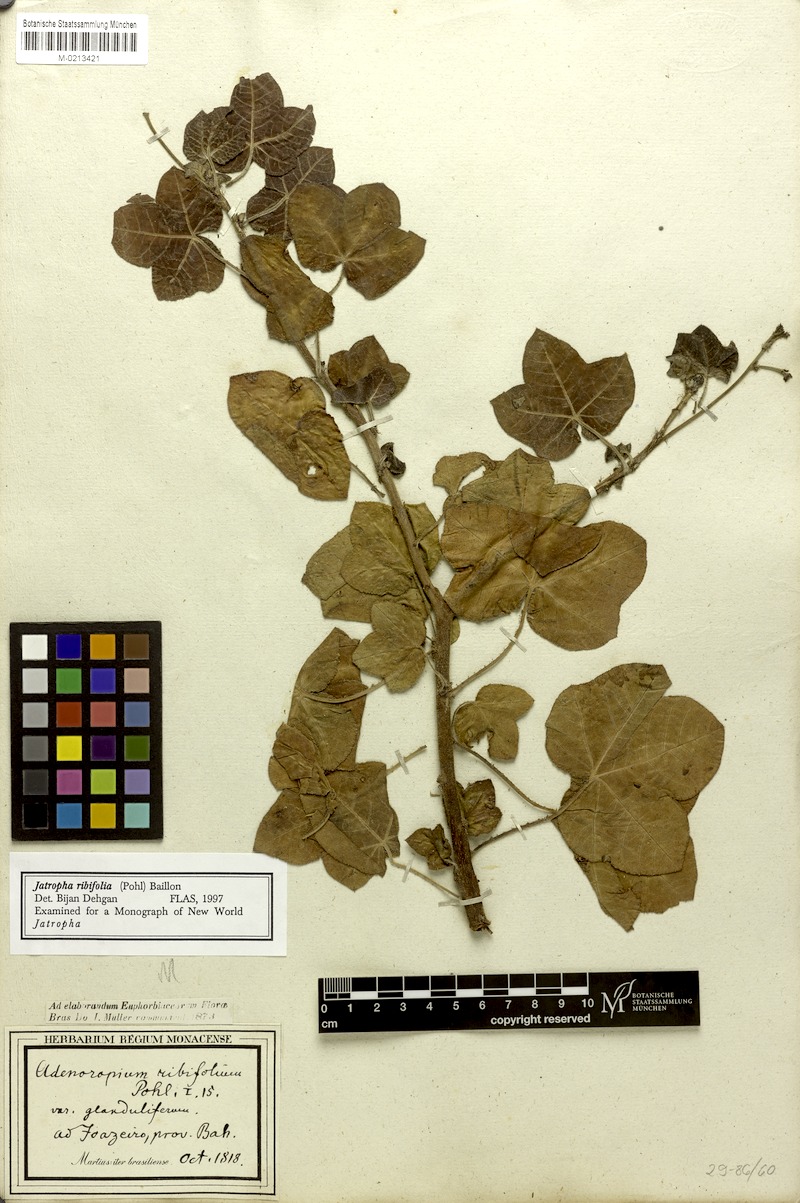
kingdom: Plantae
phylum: Tracheophyta
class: Magnoliopsida
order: Malpighiales
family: Euphorbiaceae
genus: Jatropha
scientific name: Jatropha ribifolia
